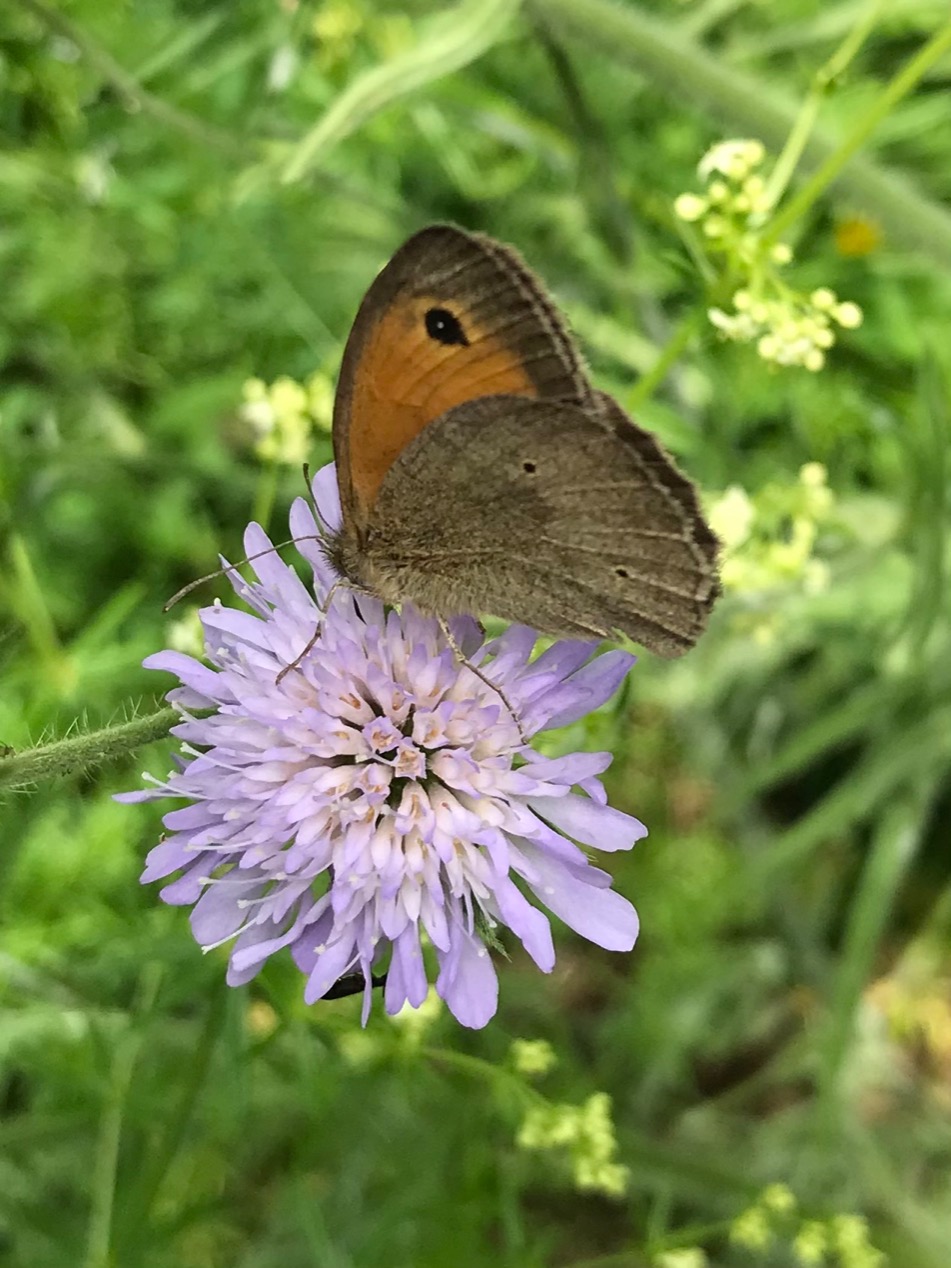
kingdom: Animalia
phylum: Arthropoda
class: Insecta
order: Lepidoptera
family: Nymphalidae
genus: Maniola
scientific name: Maniola jurtina
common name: Græsrandøje
